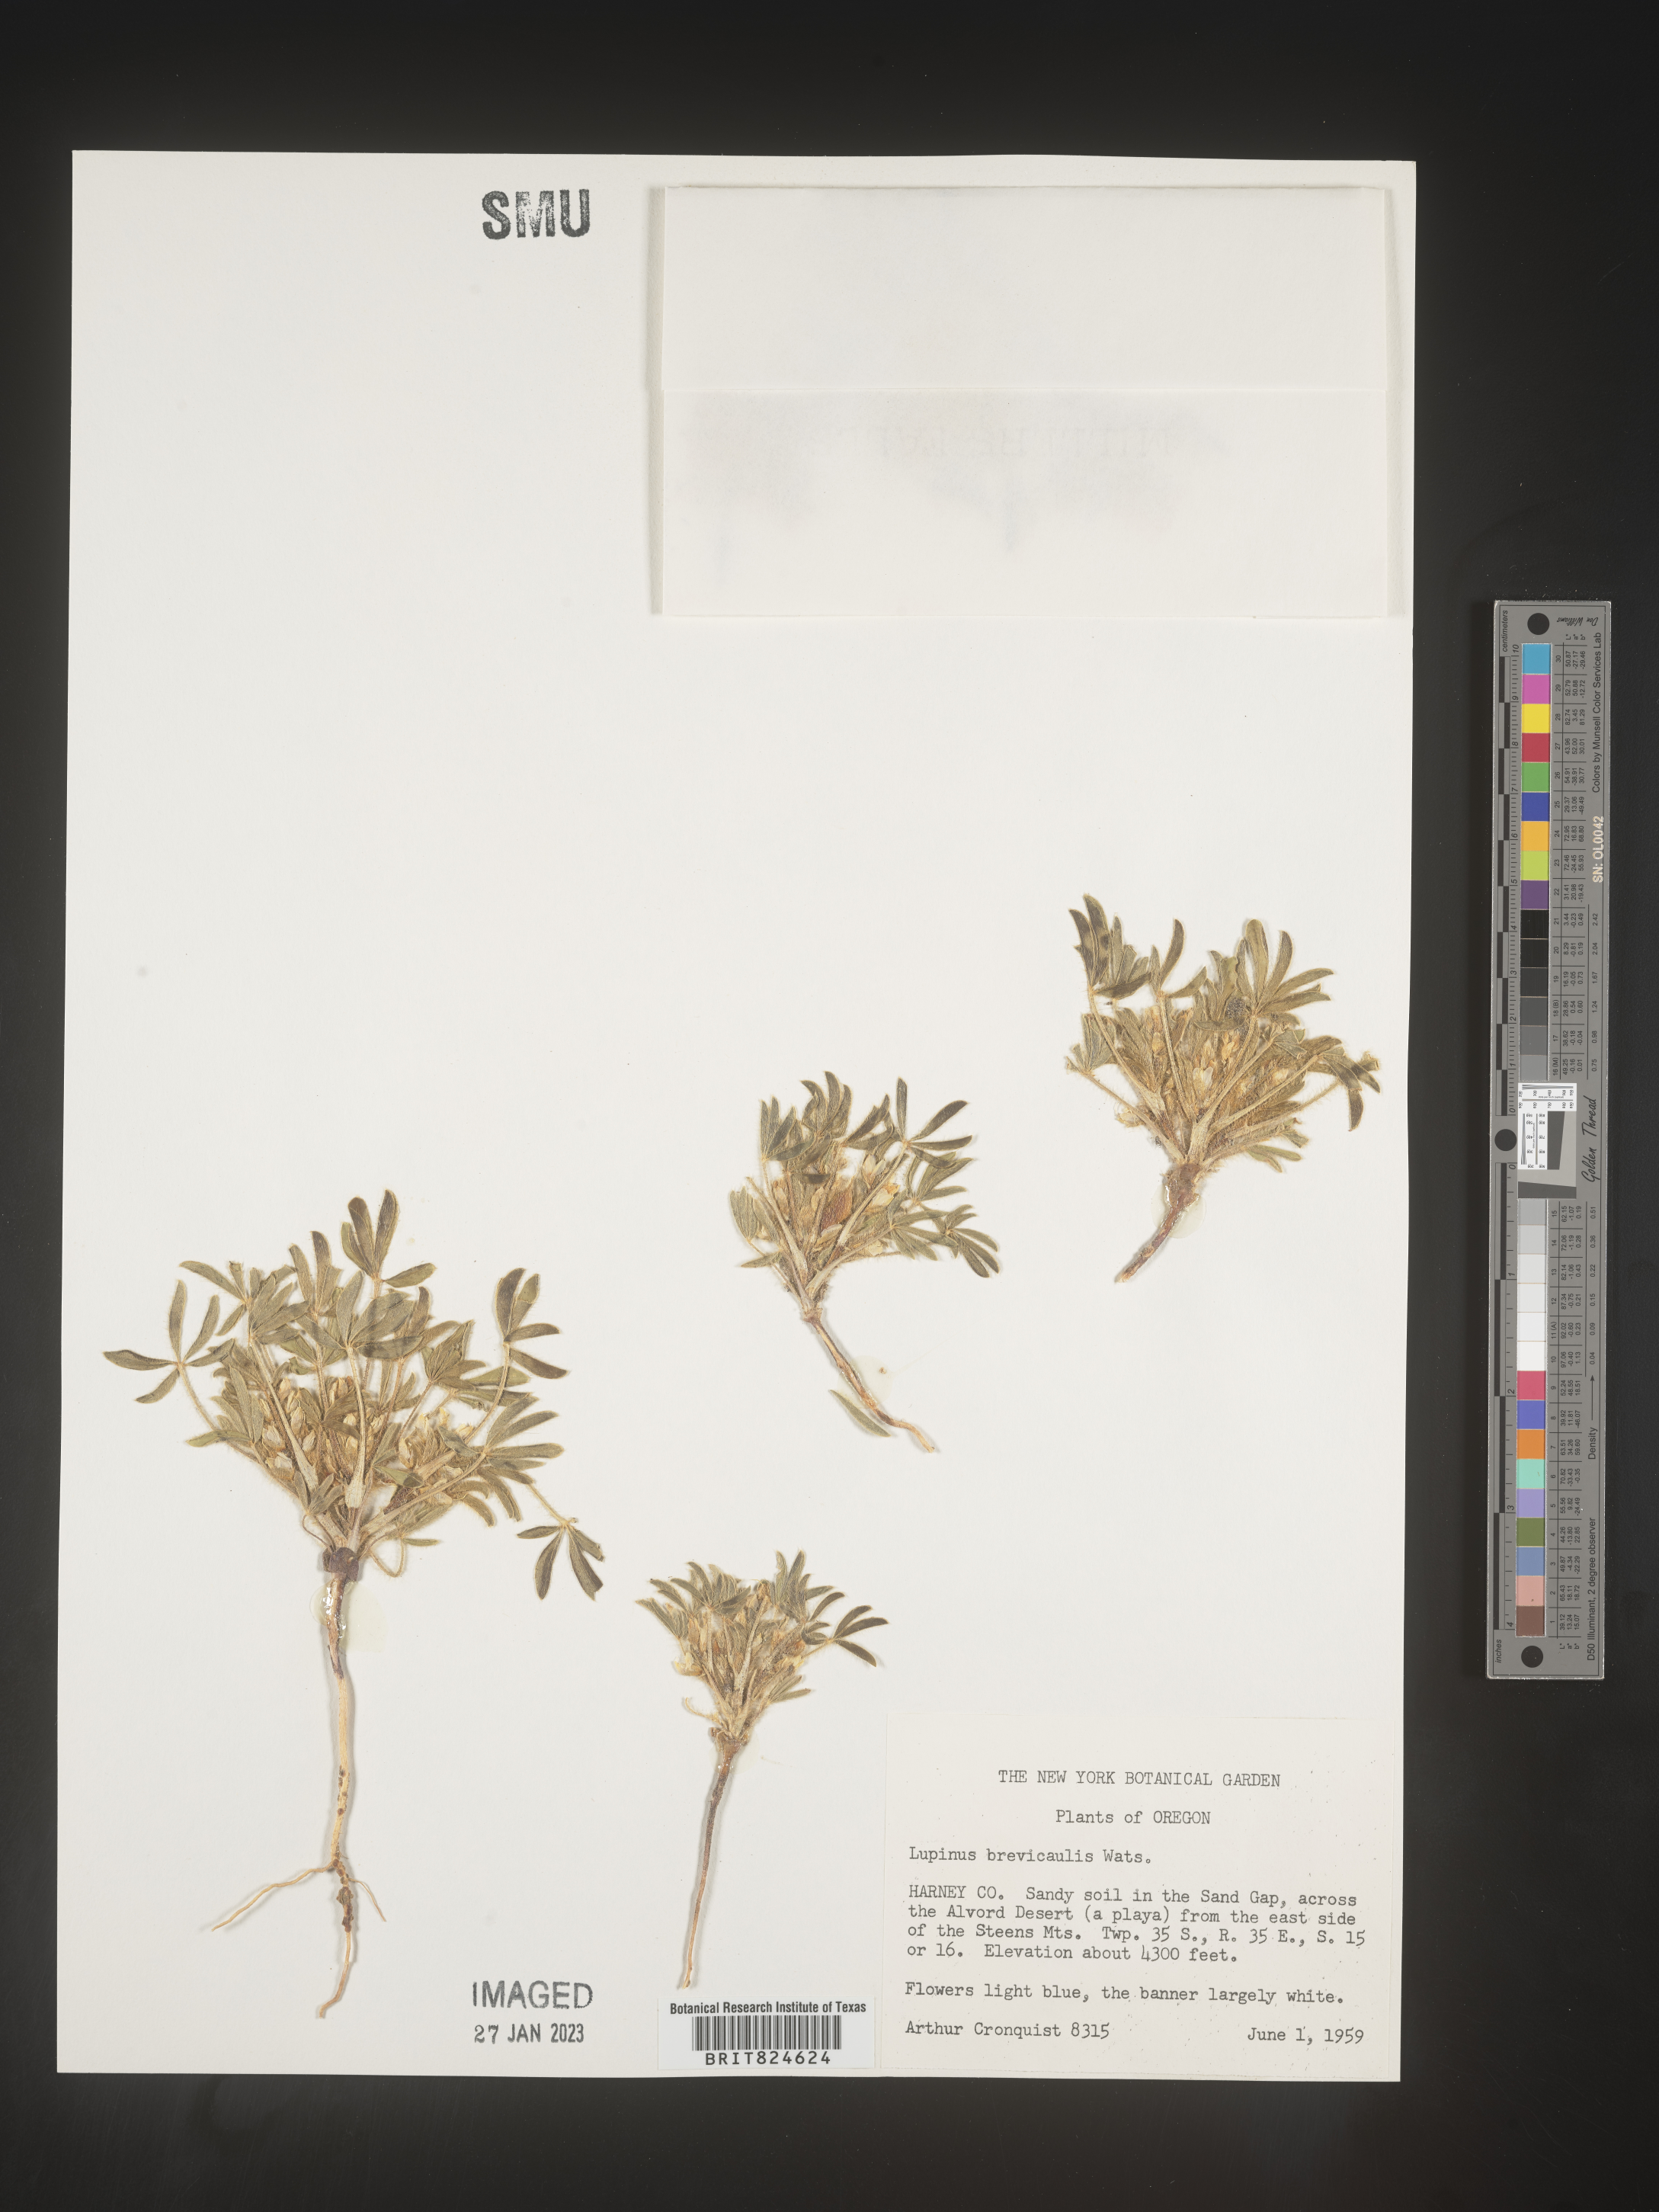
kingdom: Plantae
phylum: Tracheophyta
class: Magnoliopsida
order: Fabales
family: Fabaceae
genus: Lupinus
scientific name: Lupinus
